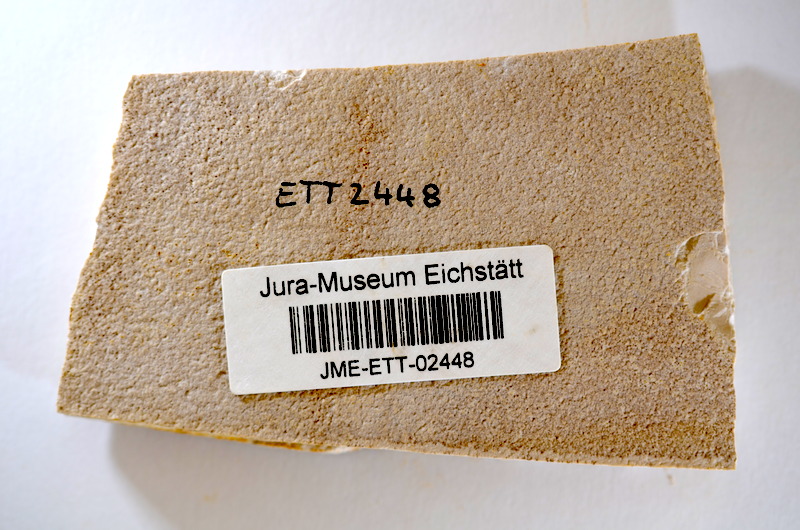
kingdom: Animalia
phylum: Chordata
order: Salmoniformes
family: Orthogonikleithridae
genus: Orthogonikleithrus
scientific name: Orthogonikleithrus hoelli
